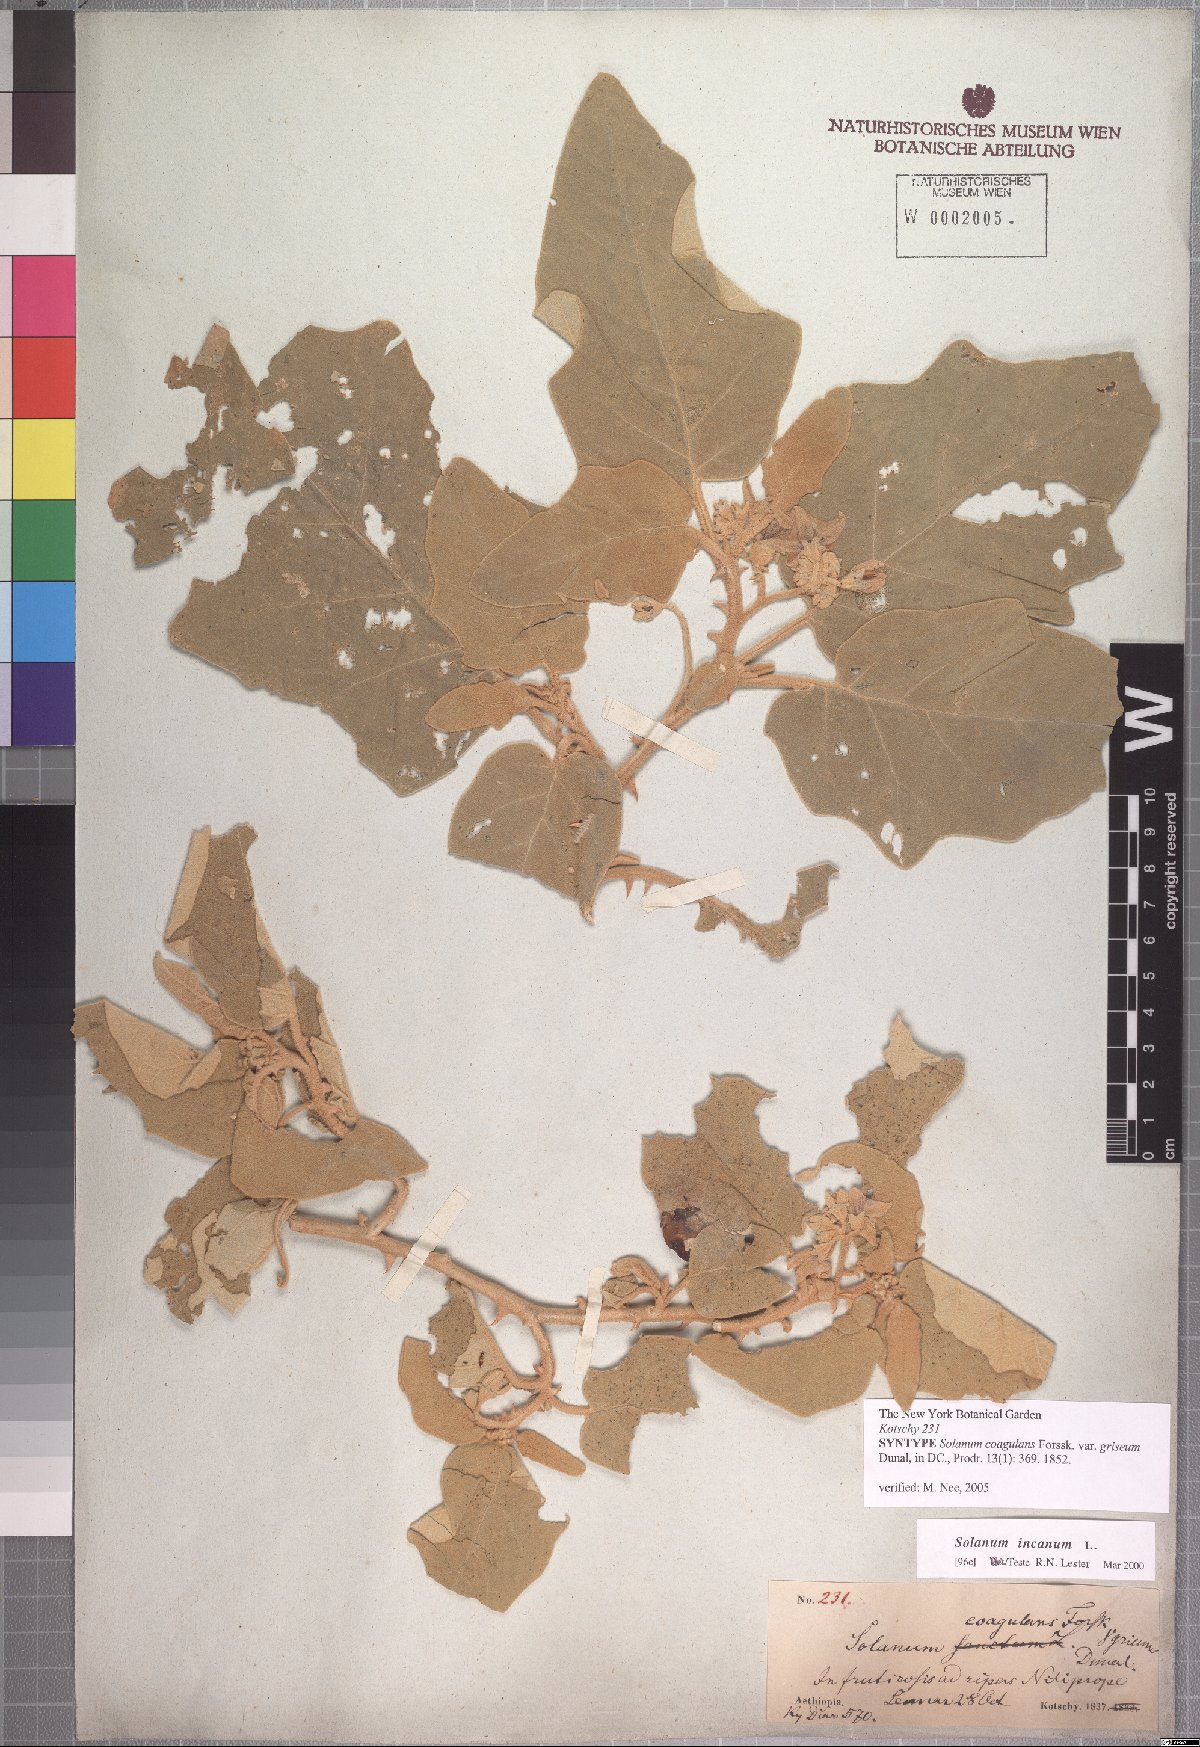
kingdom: Plantae
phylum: Tracheophyta
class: Magnoliopsida
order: Solanales
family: Solanaceae
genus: Solanum
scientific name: Solanum incanum
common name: Bitter apple
